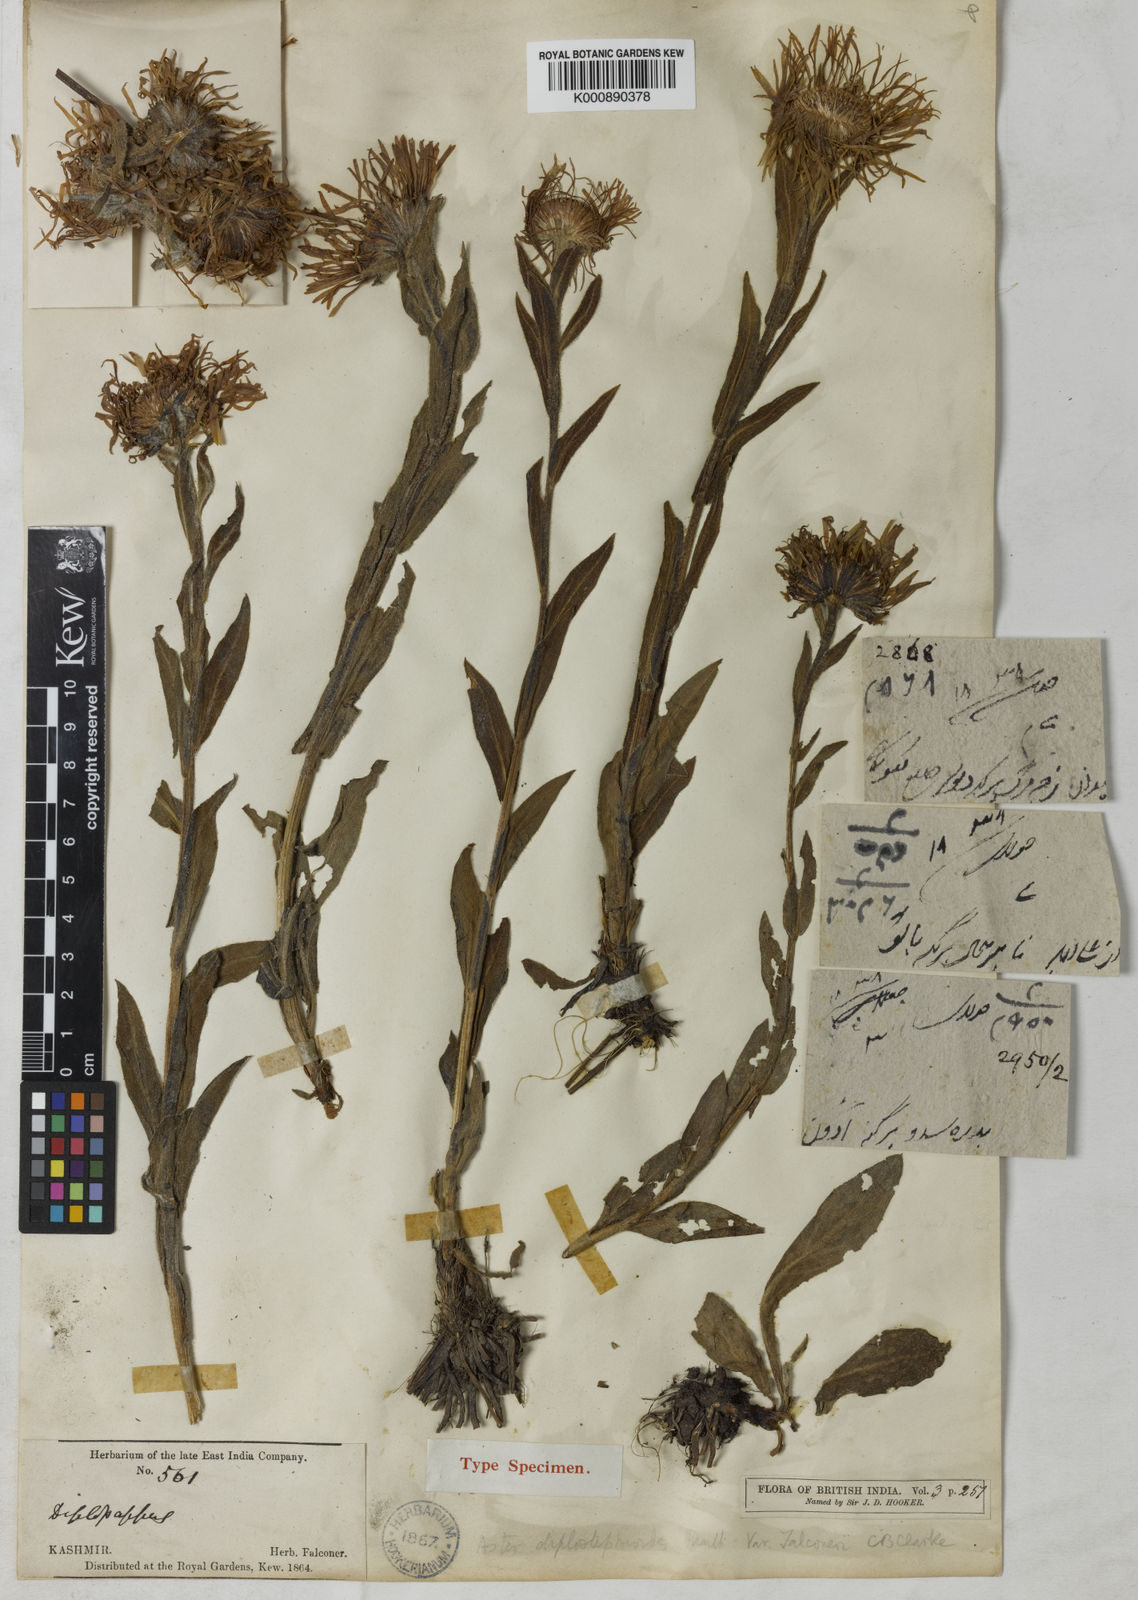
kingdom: Plantae
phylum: Tracheophyta
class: Magnoliopsida
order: Asterales
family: Asteraceae
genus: Tibetiodes
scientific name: Tibetiodes falconeri
